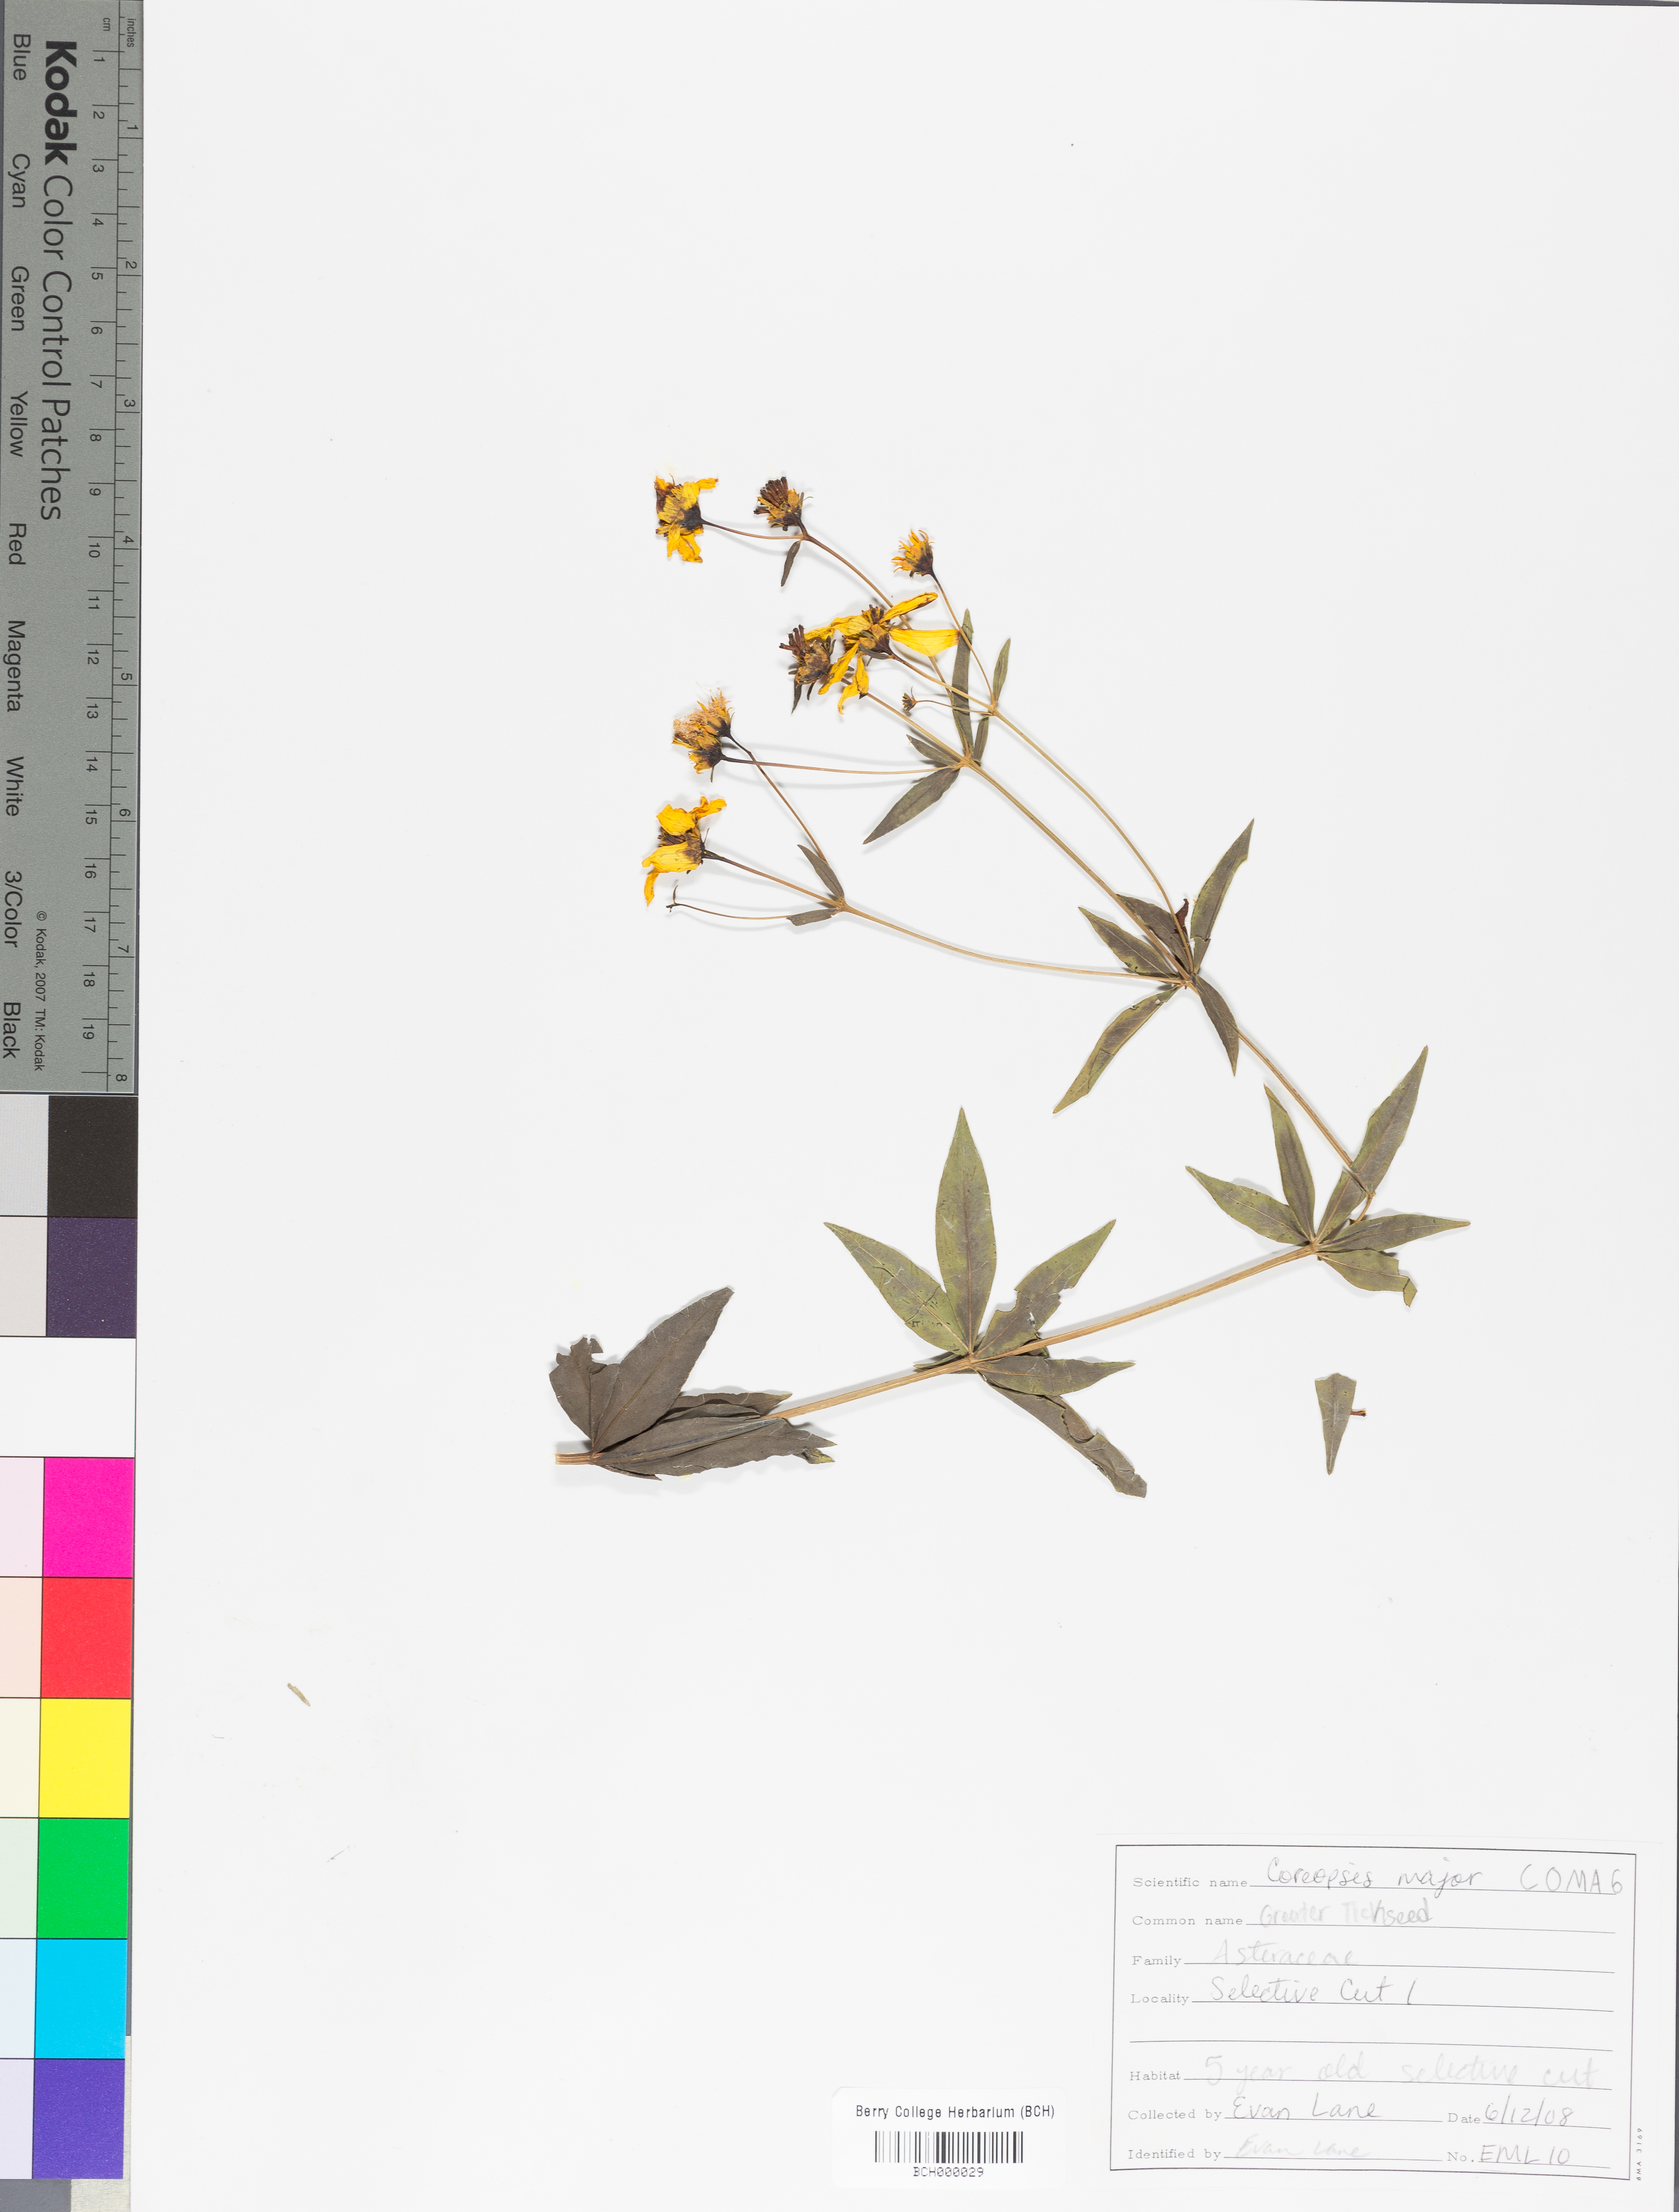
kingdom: Plantae
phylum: Tracheophyta
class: Magnoliopsida
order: Asterales
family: Asteraceae
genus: Coreopsis
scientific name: Coreopsis major
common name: Forest tickseed
